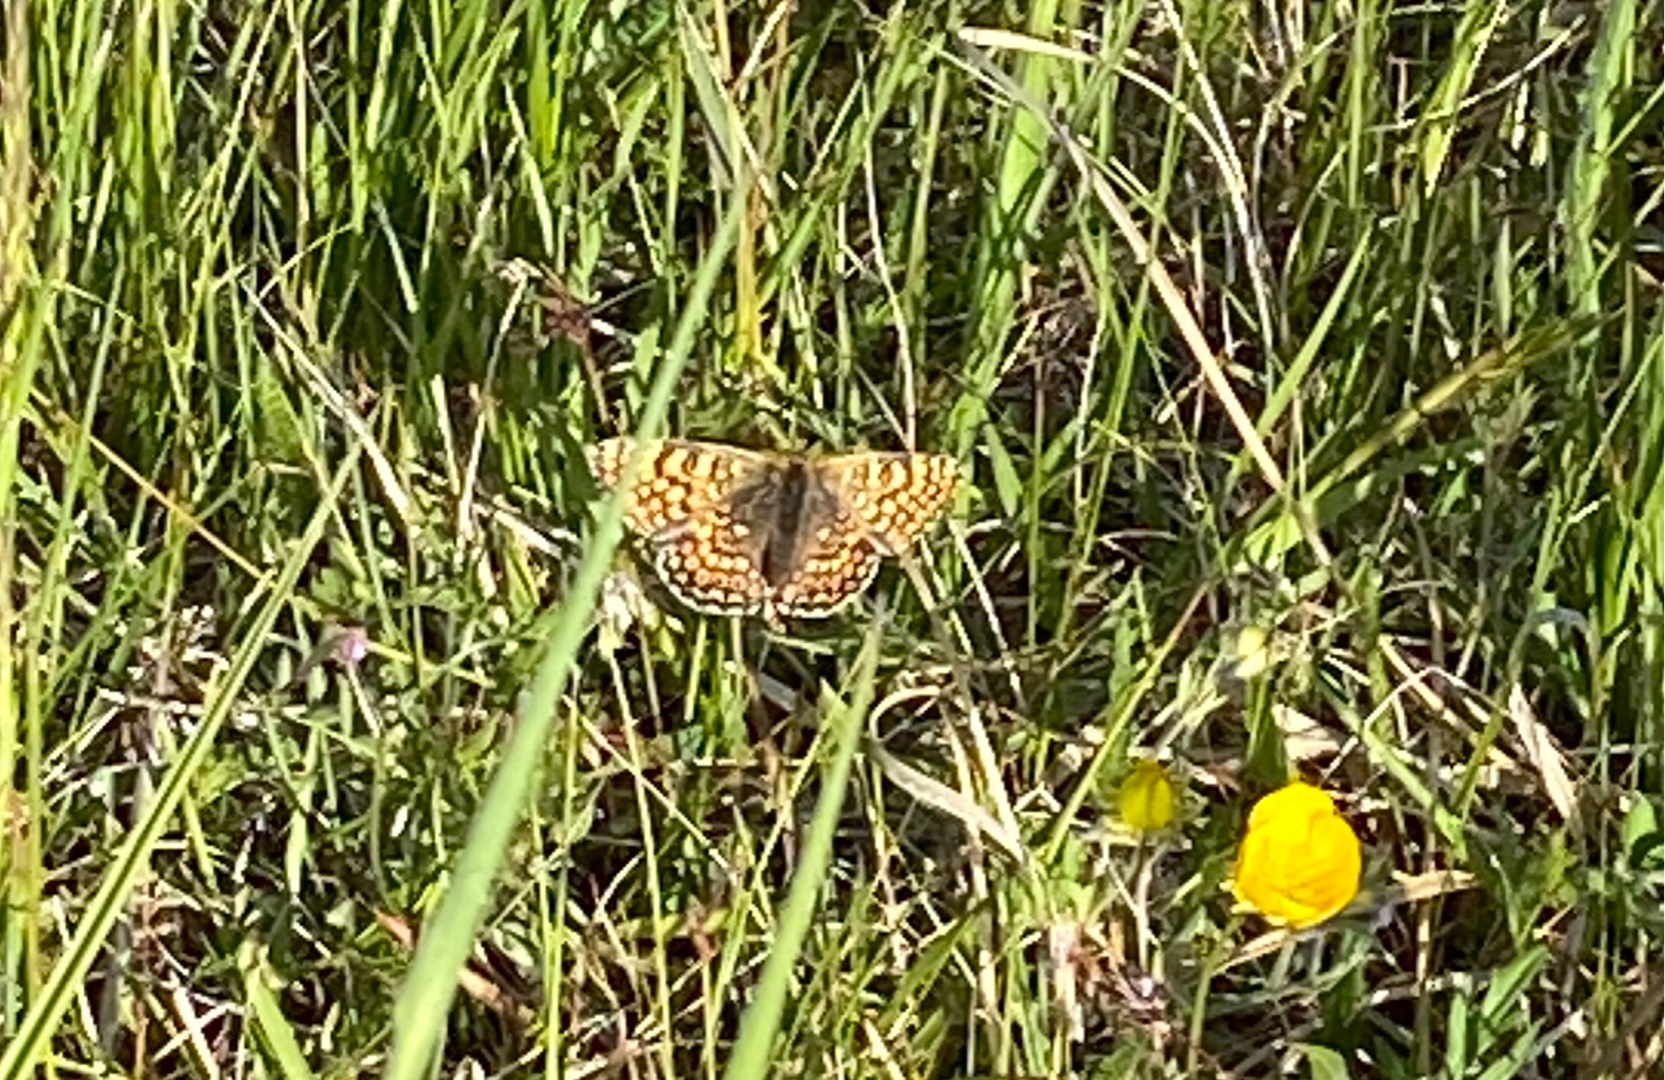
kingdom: Animalia
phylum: Arthropoda
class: Insecta
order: Lepidoptera
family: Nymphalidae
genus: Melitaea
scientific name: Melitaea cinxia
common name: Okkergul pletvinge
